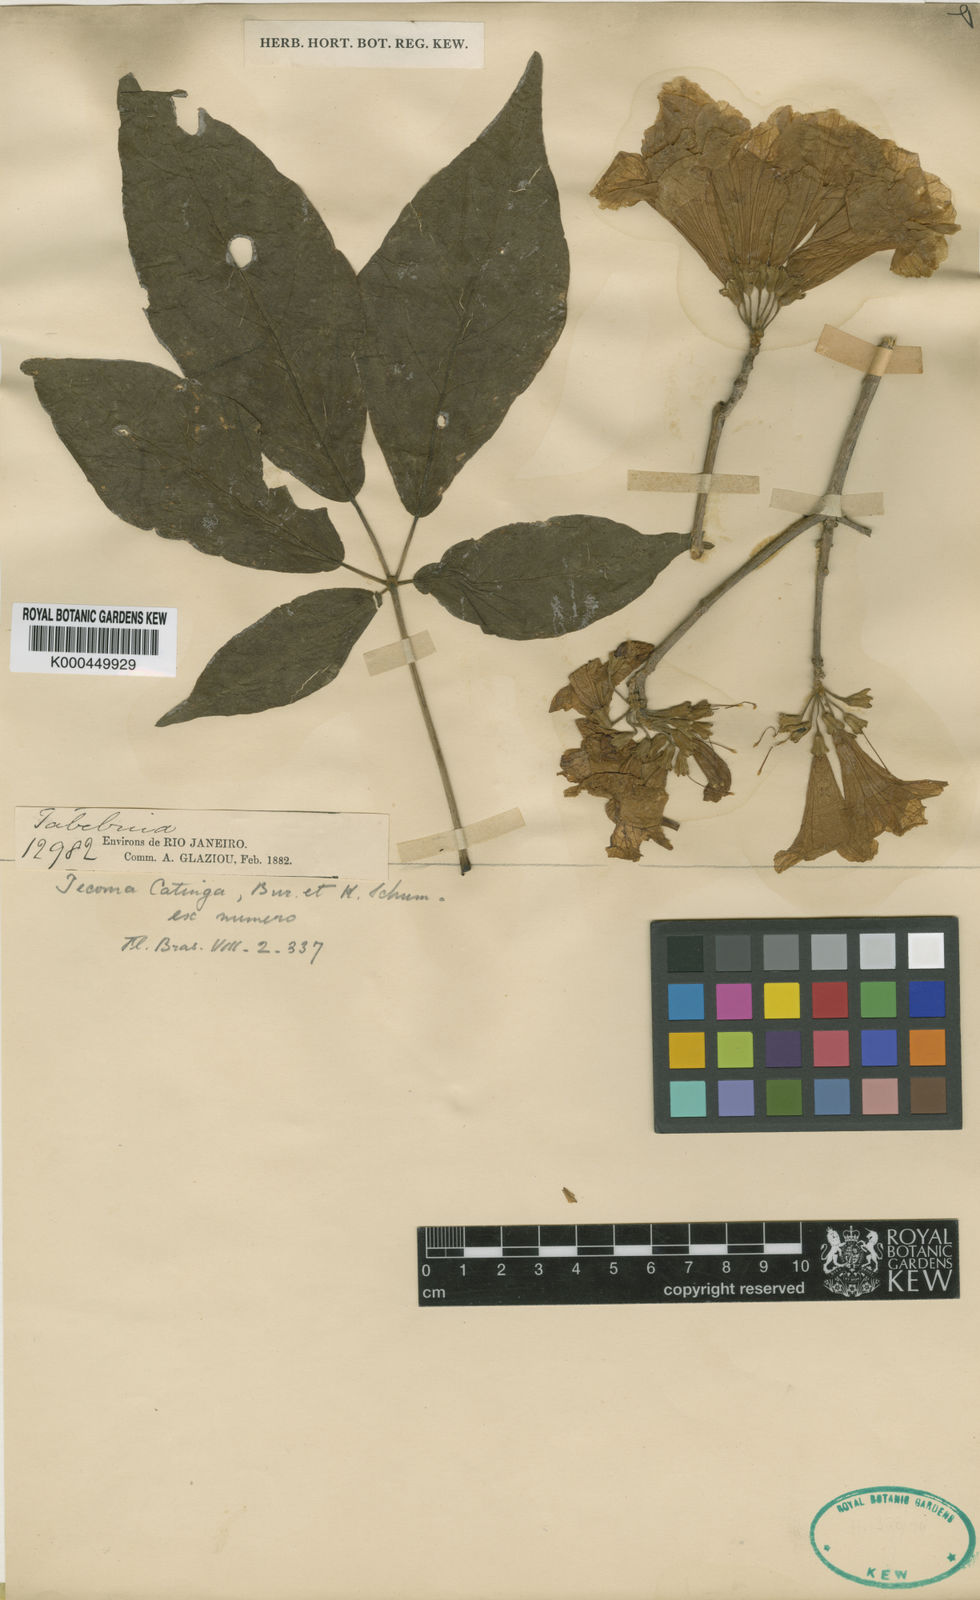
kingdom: Plantae
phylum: Tracheophyta
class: Magnoliopsida
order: Lamiales
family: Bignoniaceae
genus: Handroanthus
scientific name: Handroanthus pedicellatus
